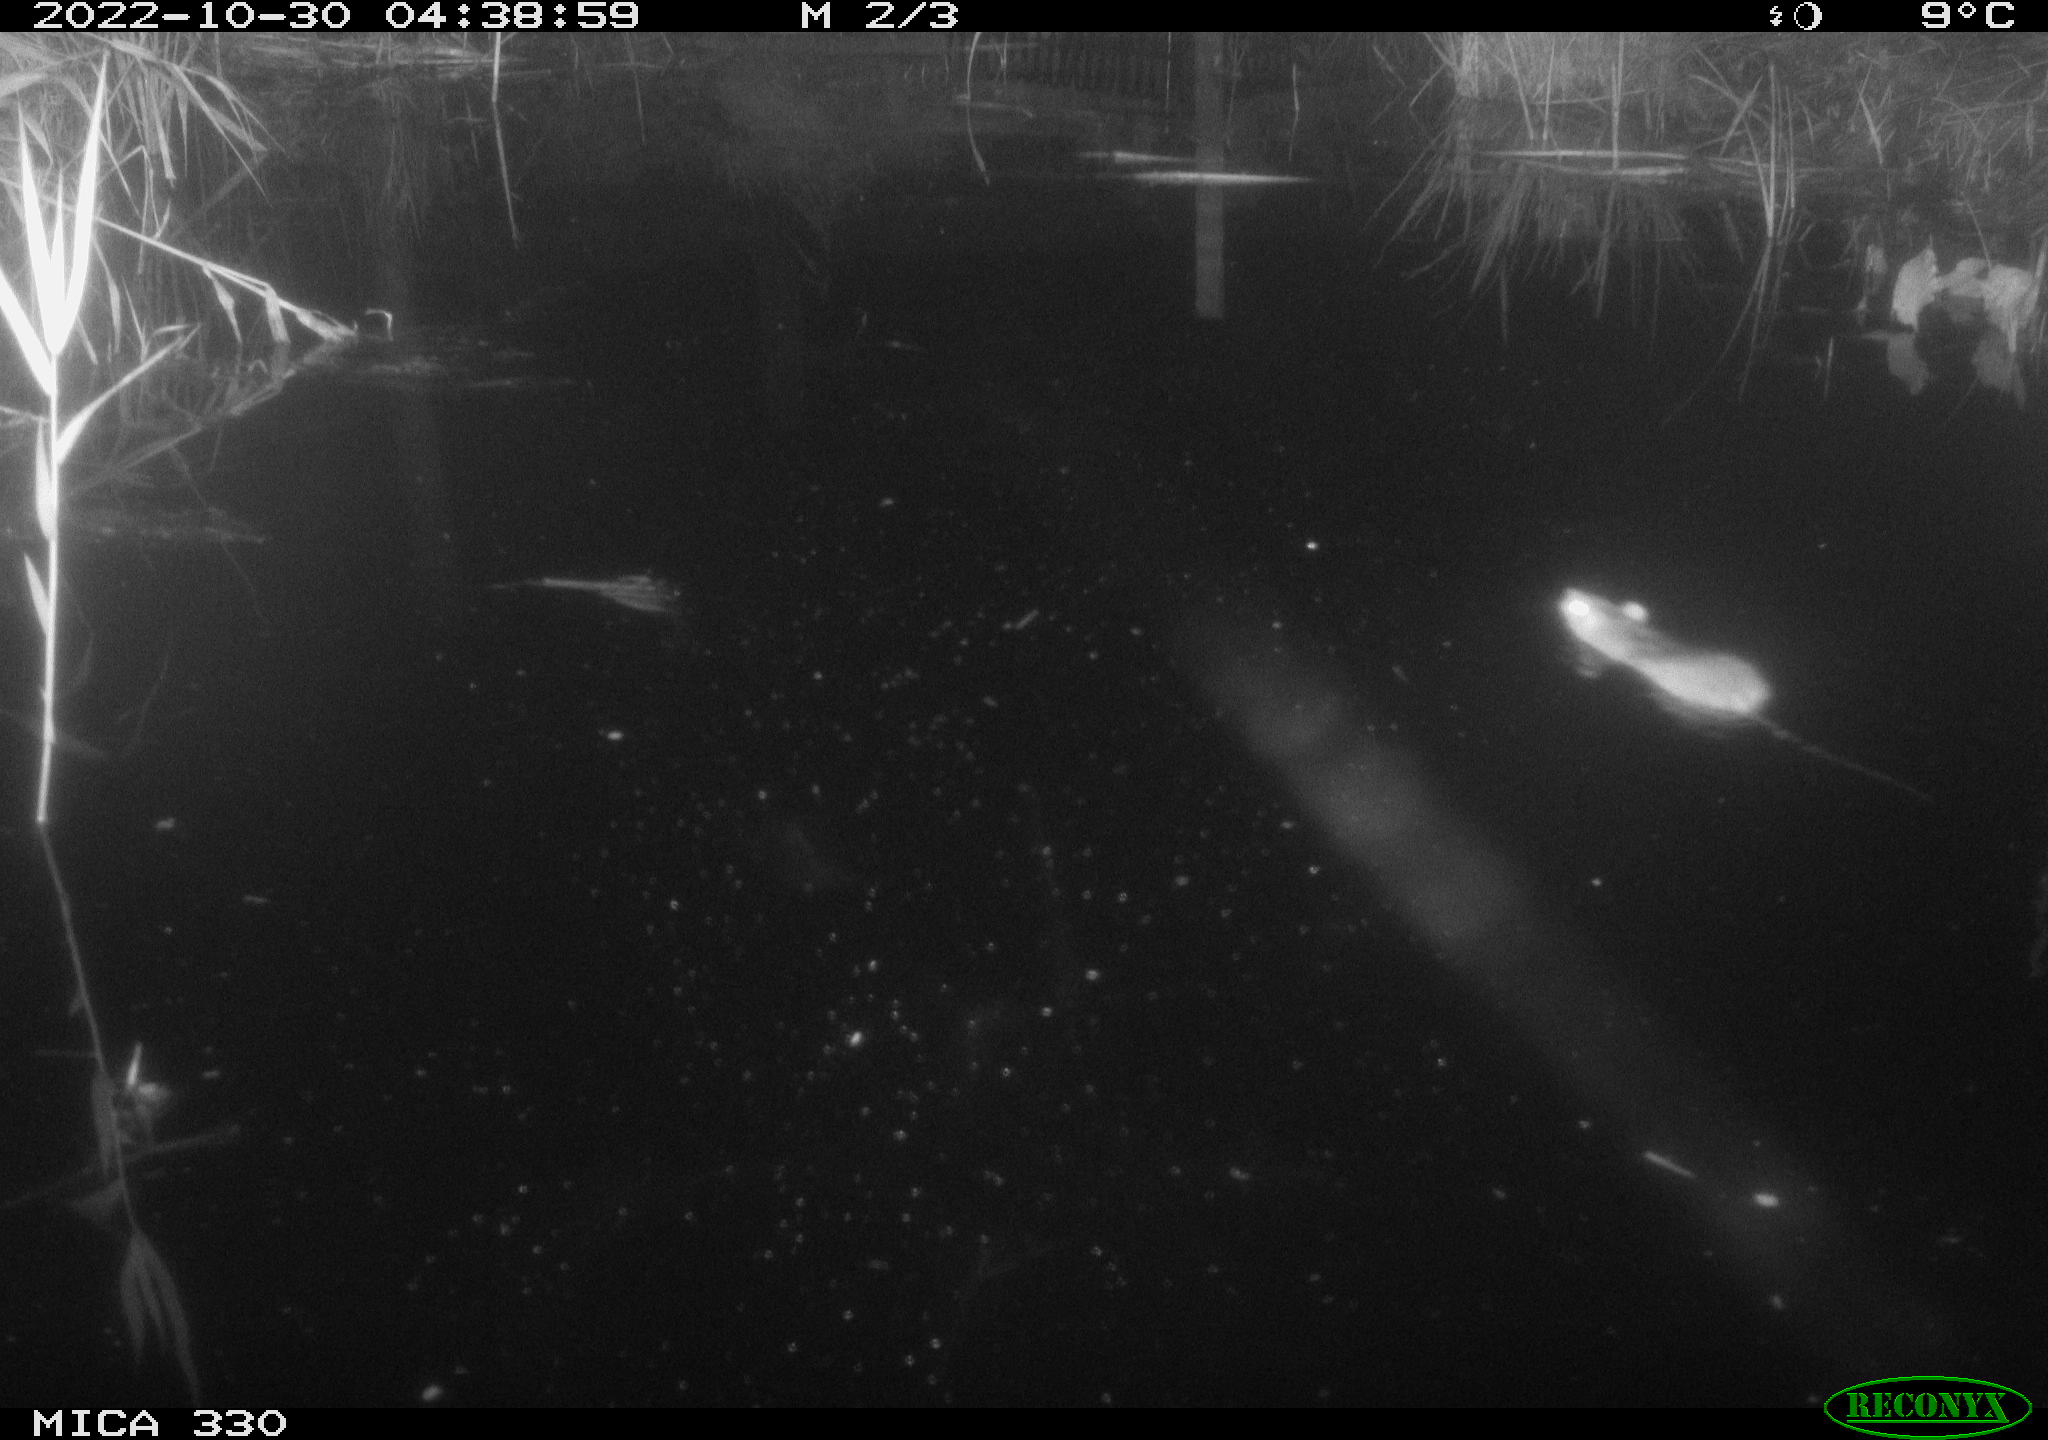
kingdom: Animalia
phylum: Chordata
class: Mammalia
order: Rodentia
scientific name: Rodentia
